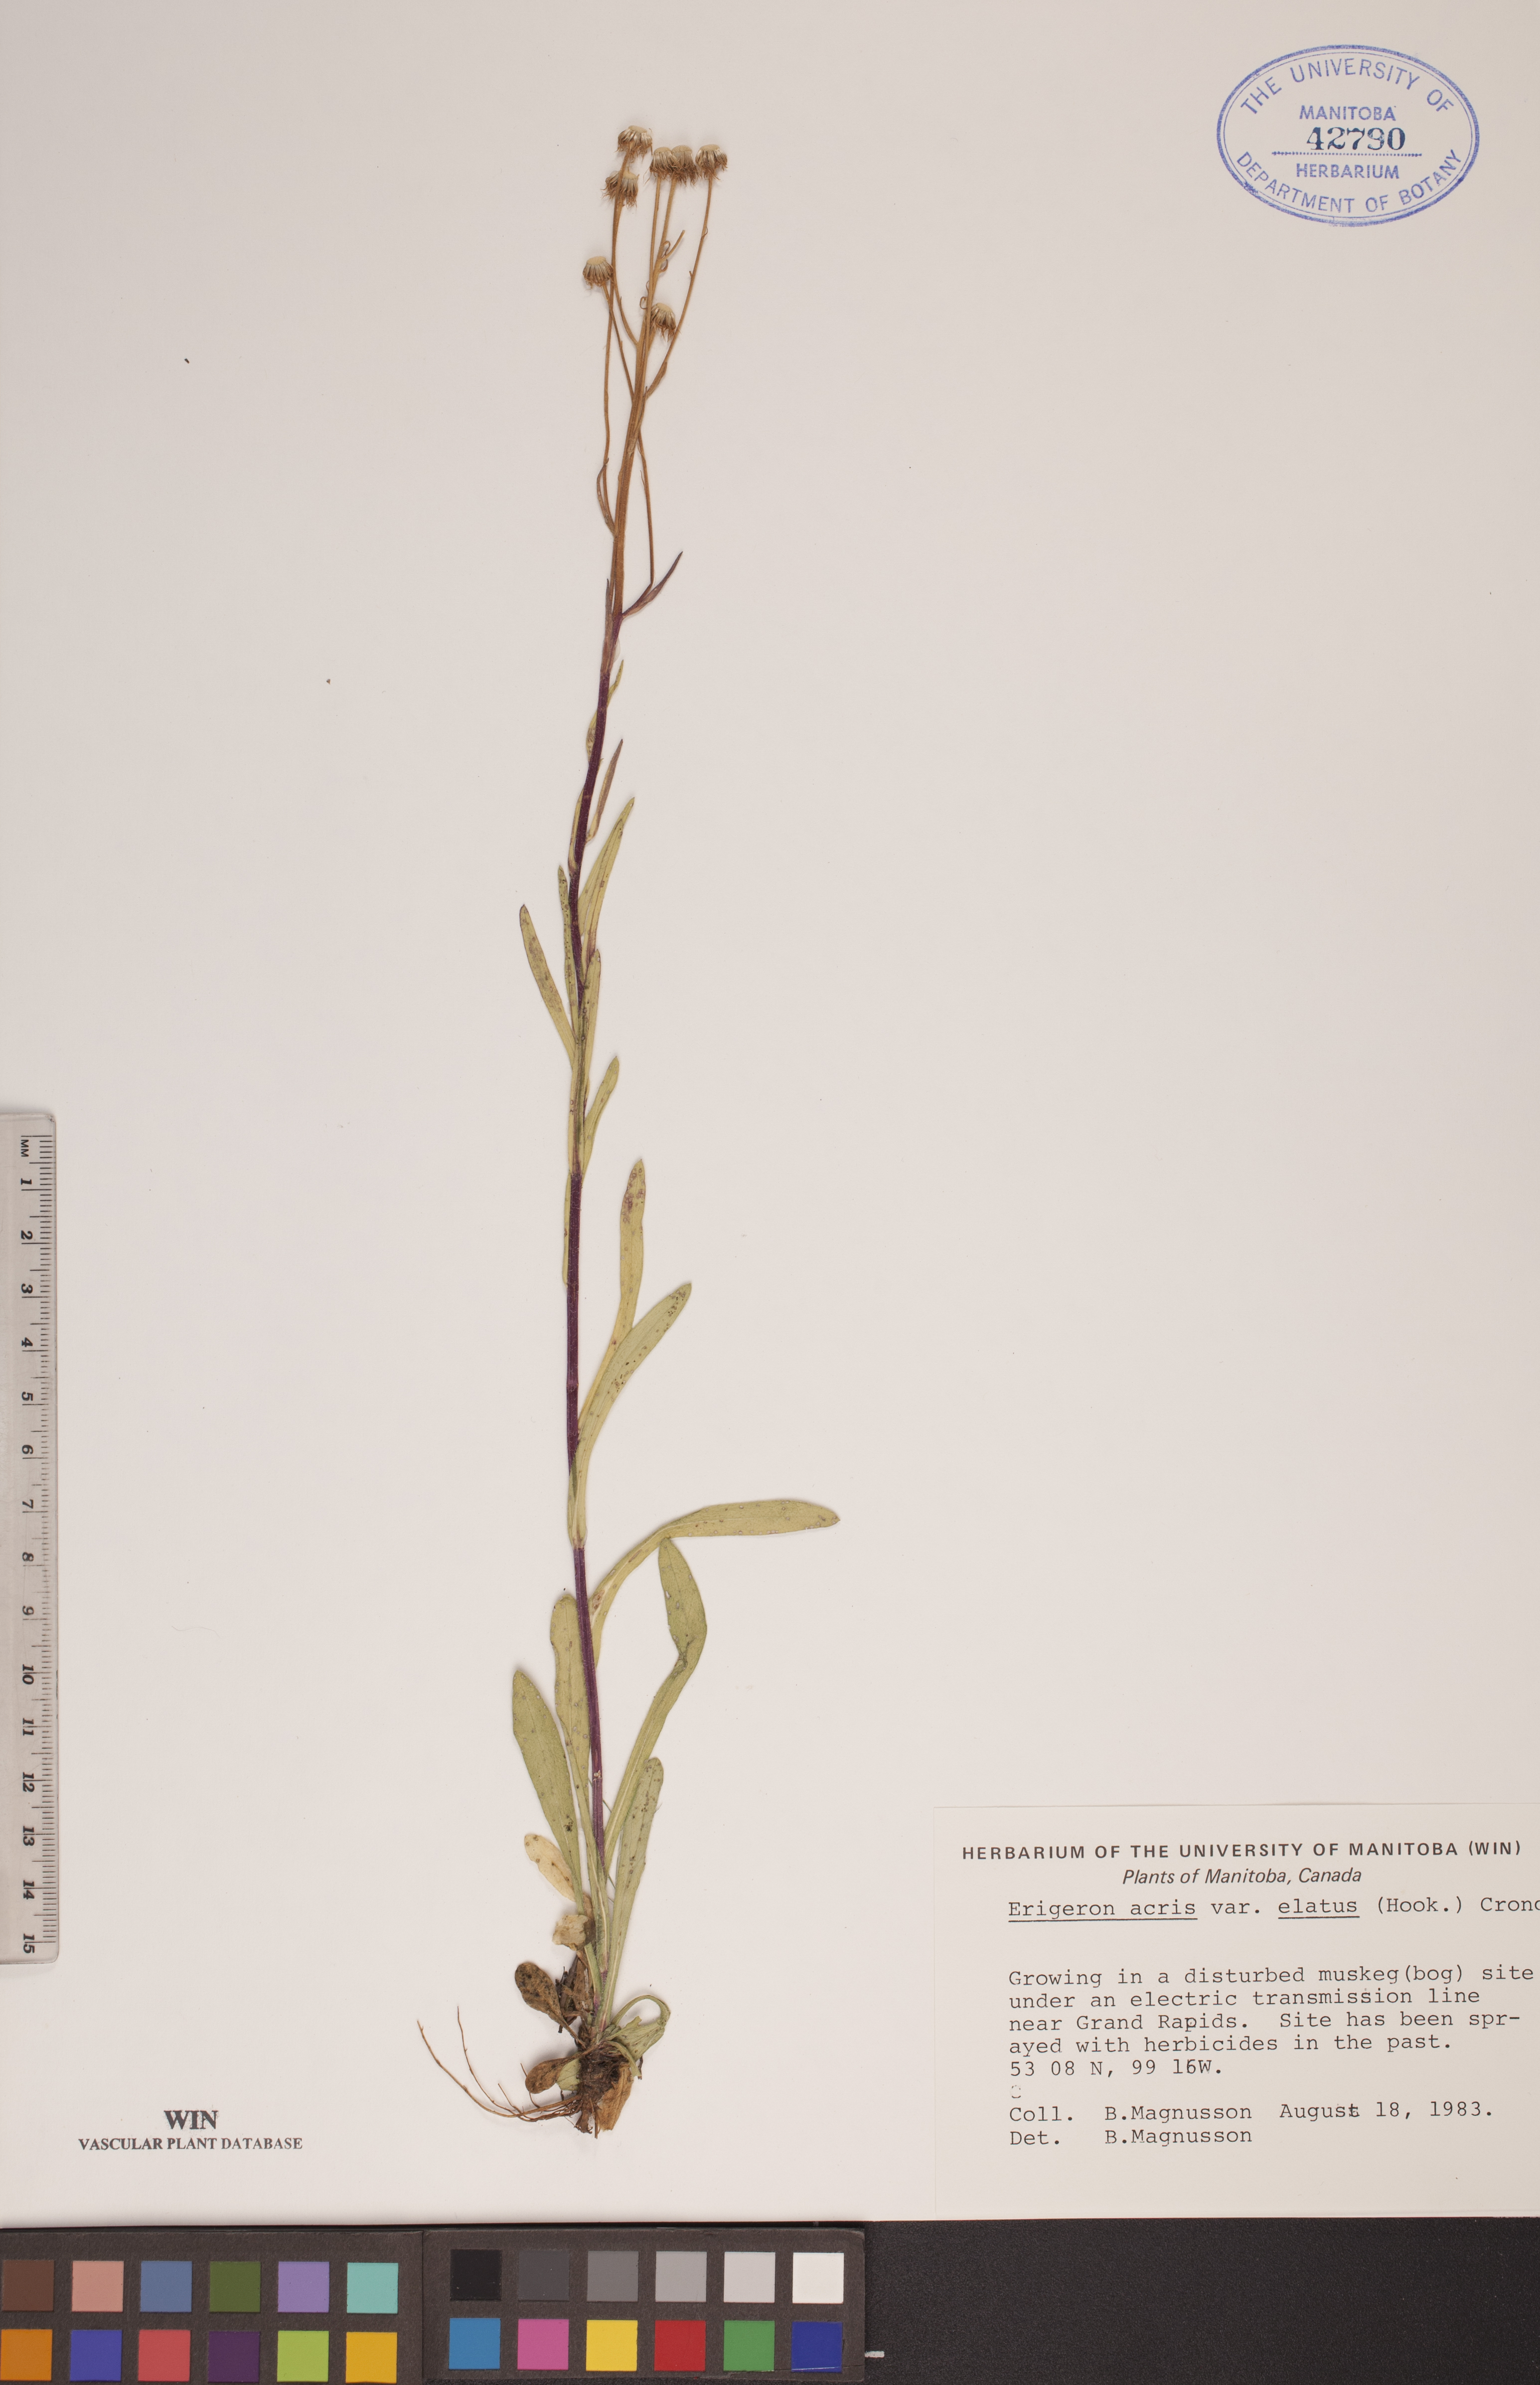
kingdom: Plantae
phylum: Tracheophyta
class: Magnoliopsida
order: Asterales
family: Asteraceae
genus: Erigeron
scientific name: Erigeron elatus
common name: Swamp fleabane
